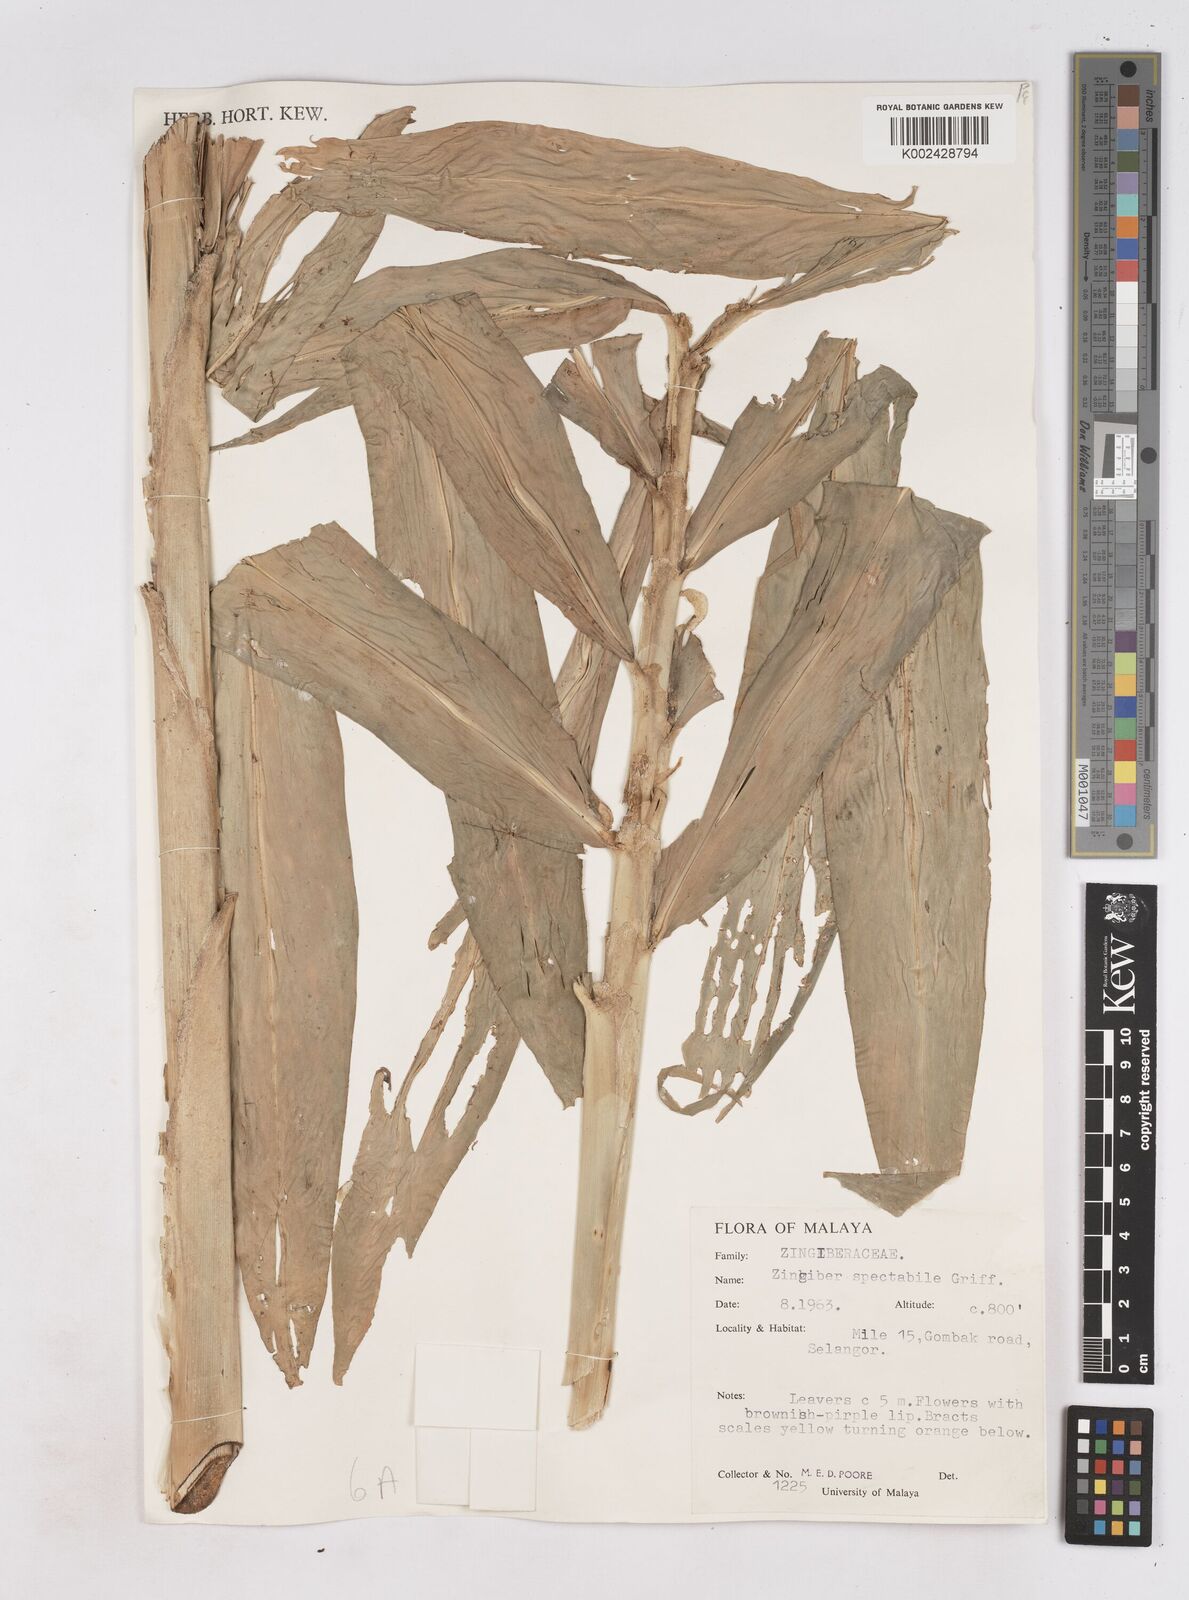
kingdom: Plantae
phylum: Tracheophyta
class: Liliopsida
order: Zingiberales
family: Zingiberaceae
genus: Zingiber
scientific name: Zingiber spectabile
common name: Beehive ginger
